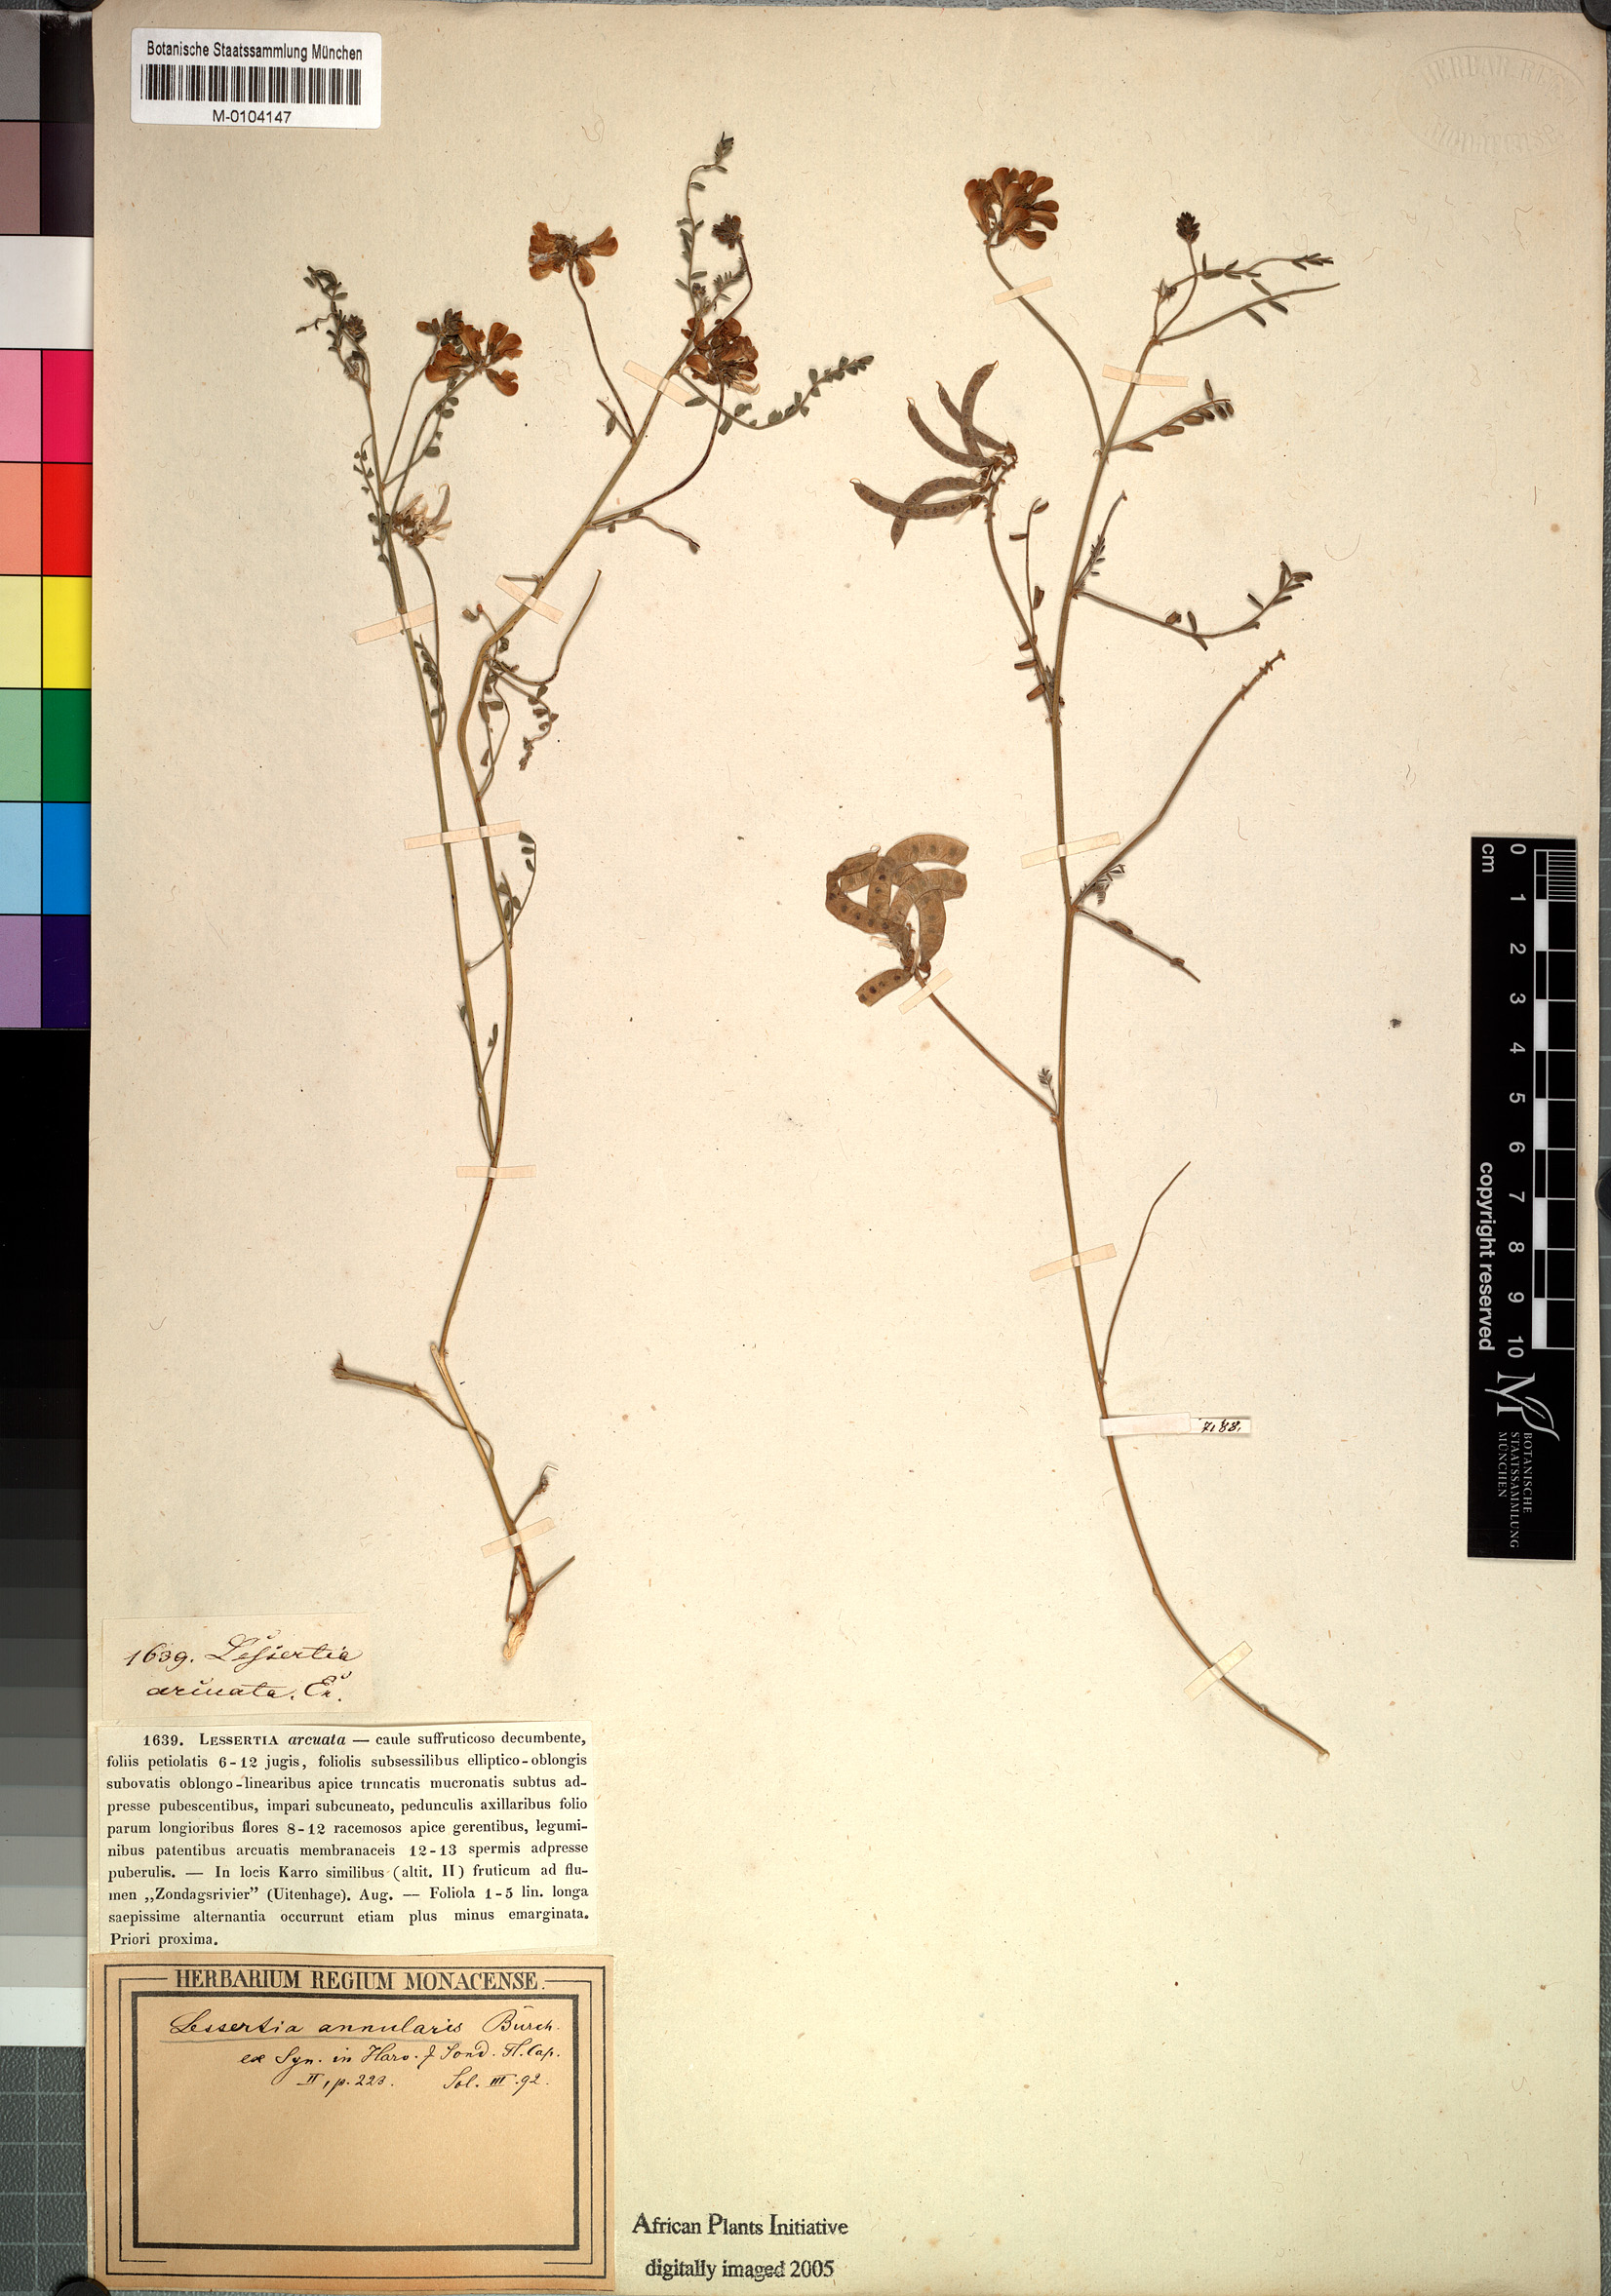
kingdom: Plantae
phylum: Tracheophyta
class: Magnoliopsida
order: Fabales
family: Fabaceae
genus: Lessertia
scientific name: Lessertia annularis
